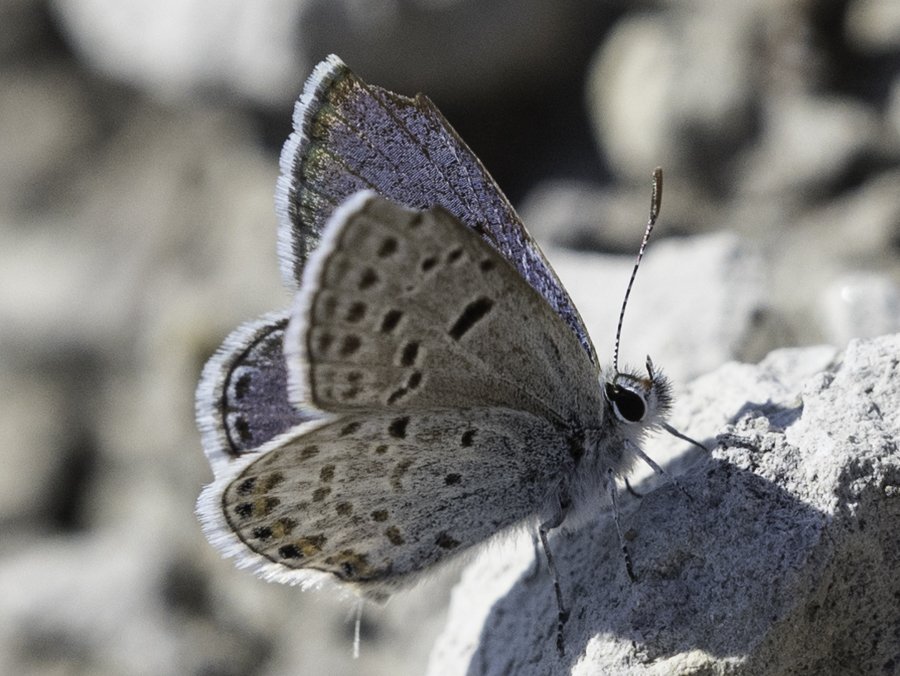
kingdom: Animalia
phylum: Arthropoda
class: Insecta
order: Lepidoptera
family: Lycaenidae
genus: Plebejus
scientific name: Plebejus shasta
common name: Shasta Blue
